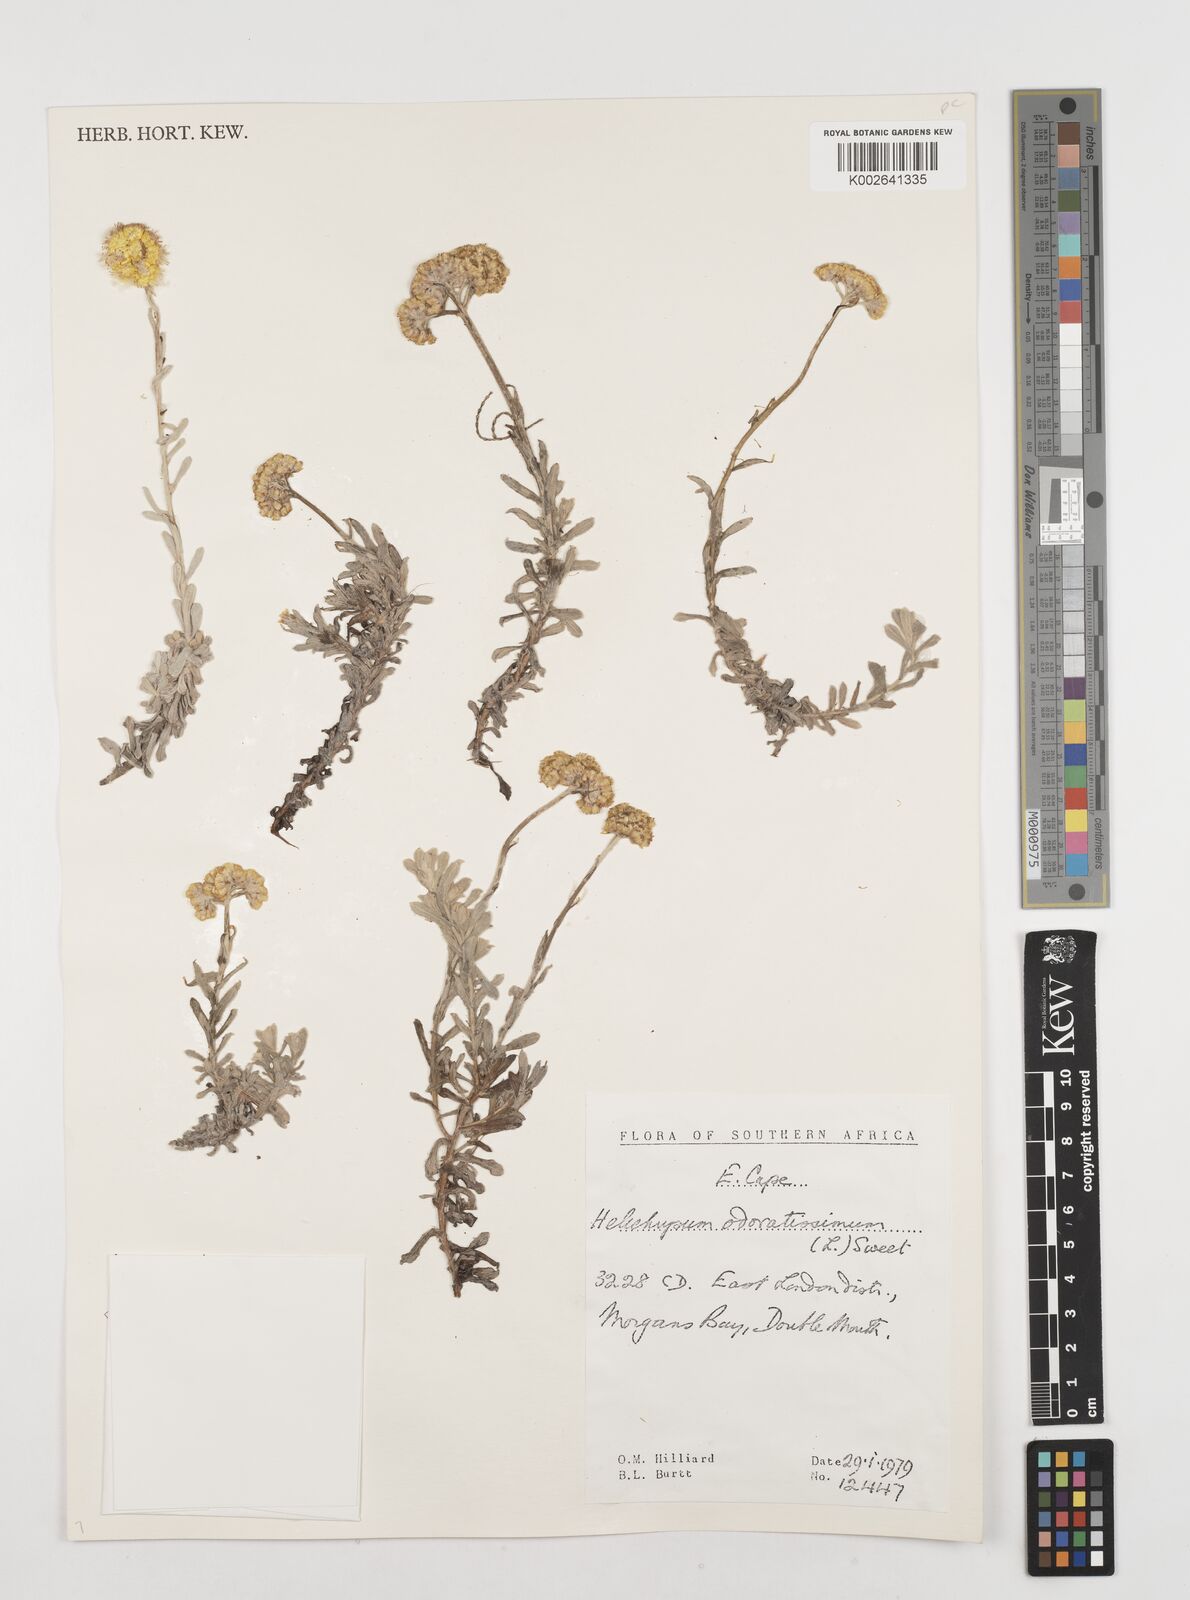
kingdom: Plantae
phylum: Tracheophyta
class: Magnoliopsida
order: Asterales
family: Asteraceae
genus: Helichrysum
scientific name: Helichrysum odoratissimum
